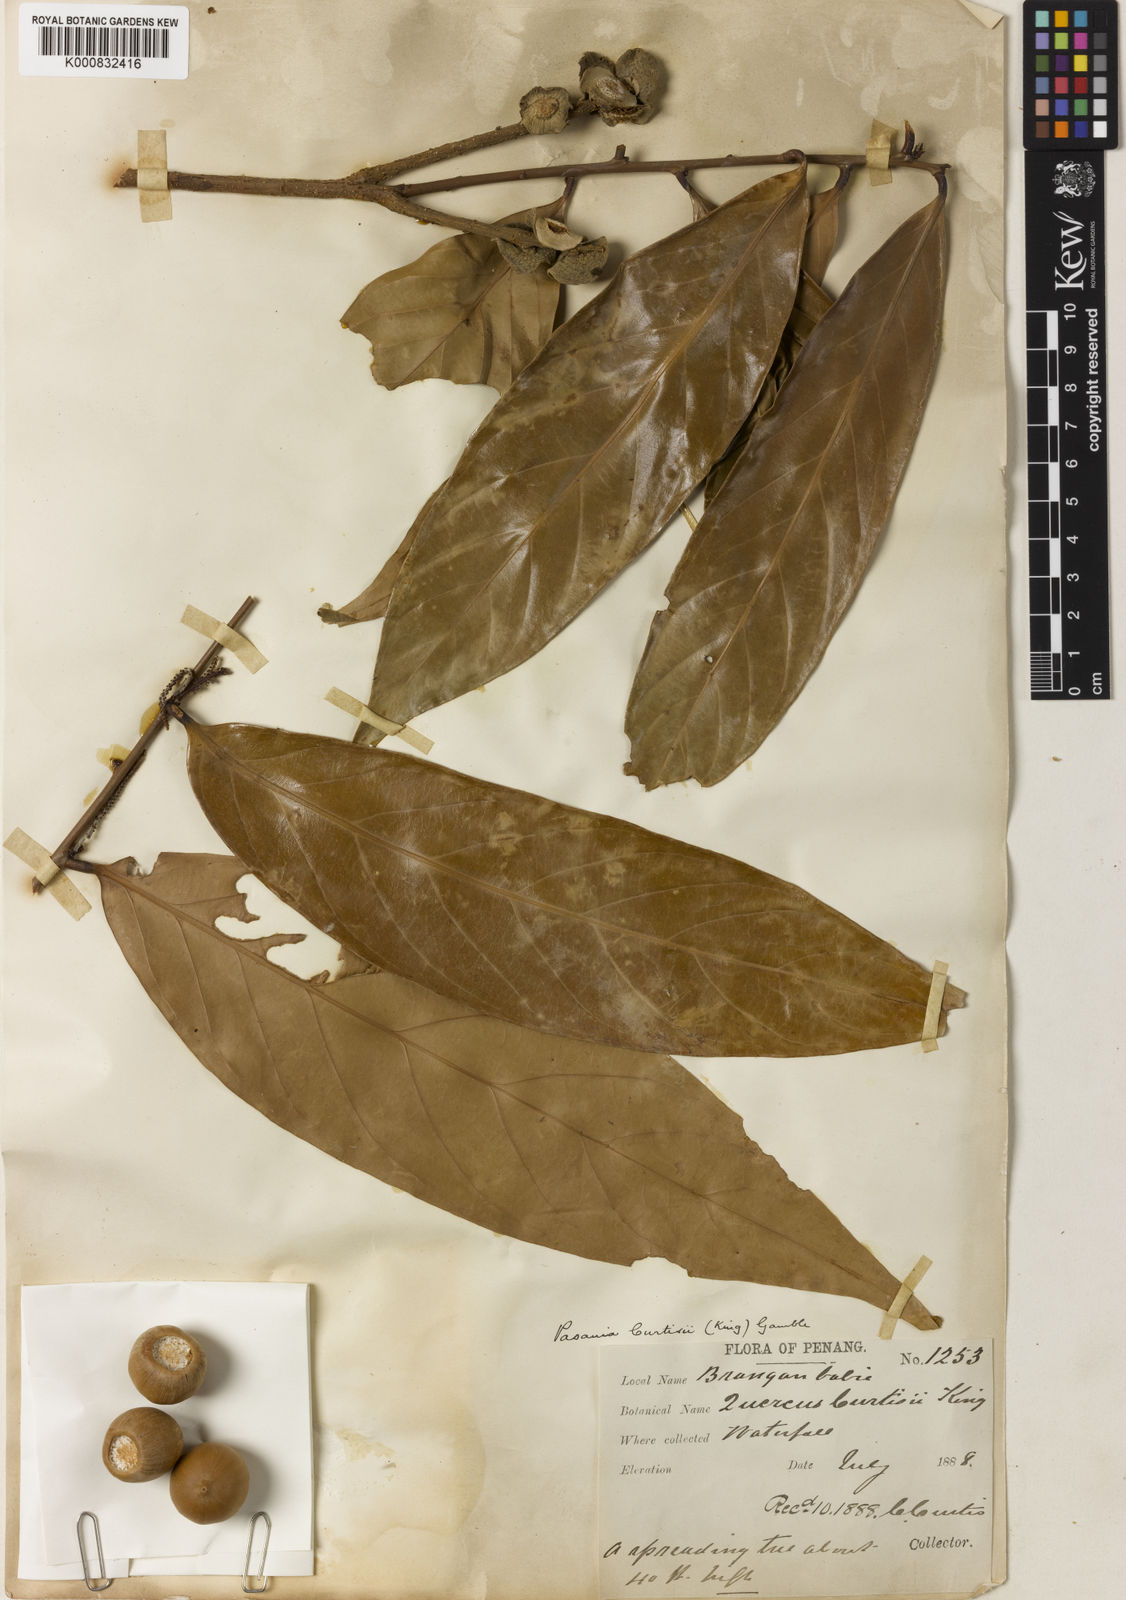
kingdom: Plantae
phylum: Tracheophyta
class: Magnoliopsida
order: Fagales
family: Fagaceae
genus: Lithocarpus
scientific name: Lithocarpus curtisii
